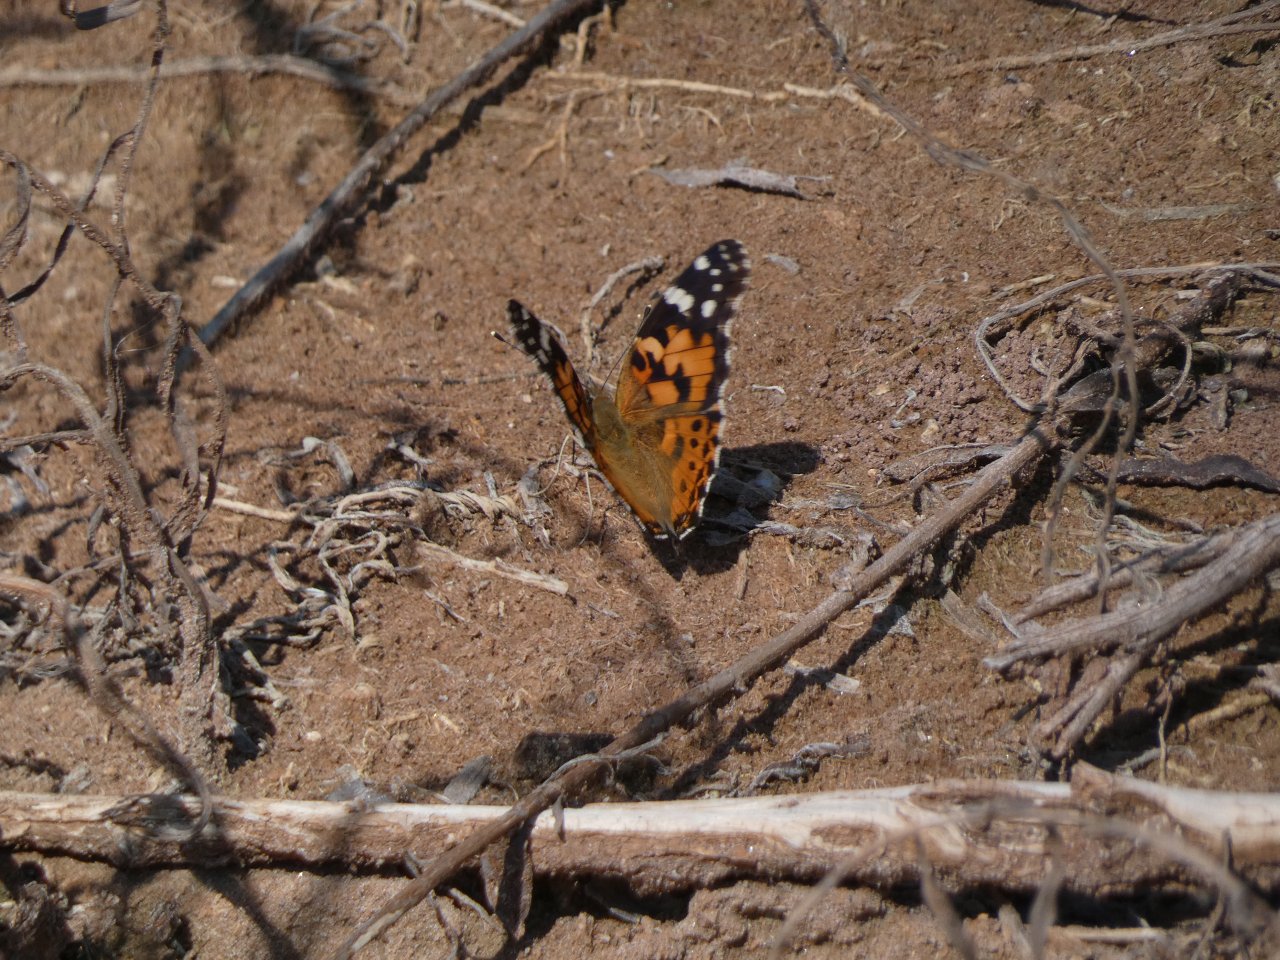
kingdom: Animalia
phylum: Arthropoda
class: Insecta
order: Lepidoptera
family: Nymphalidae
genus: Vanessa
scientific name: Vanessa cardui
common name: Painted Lady
